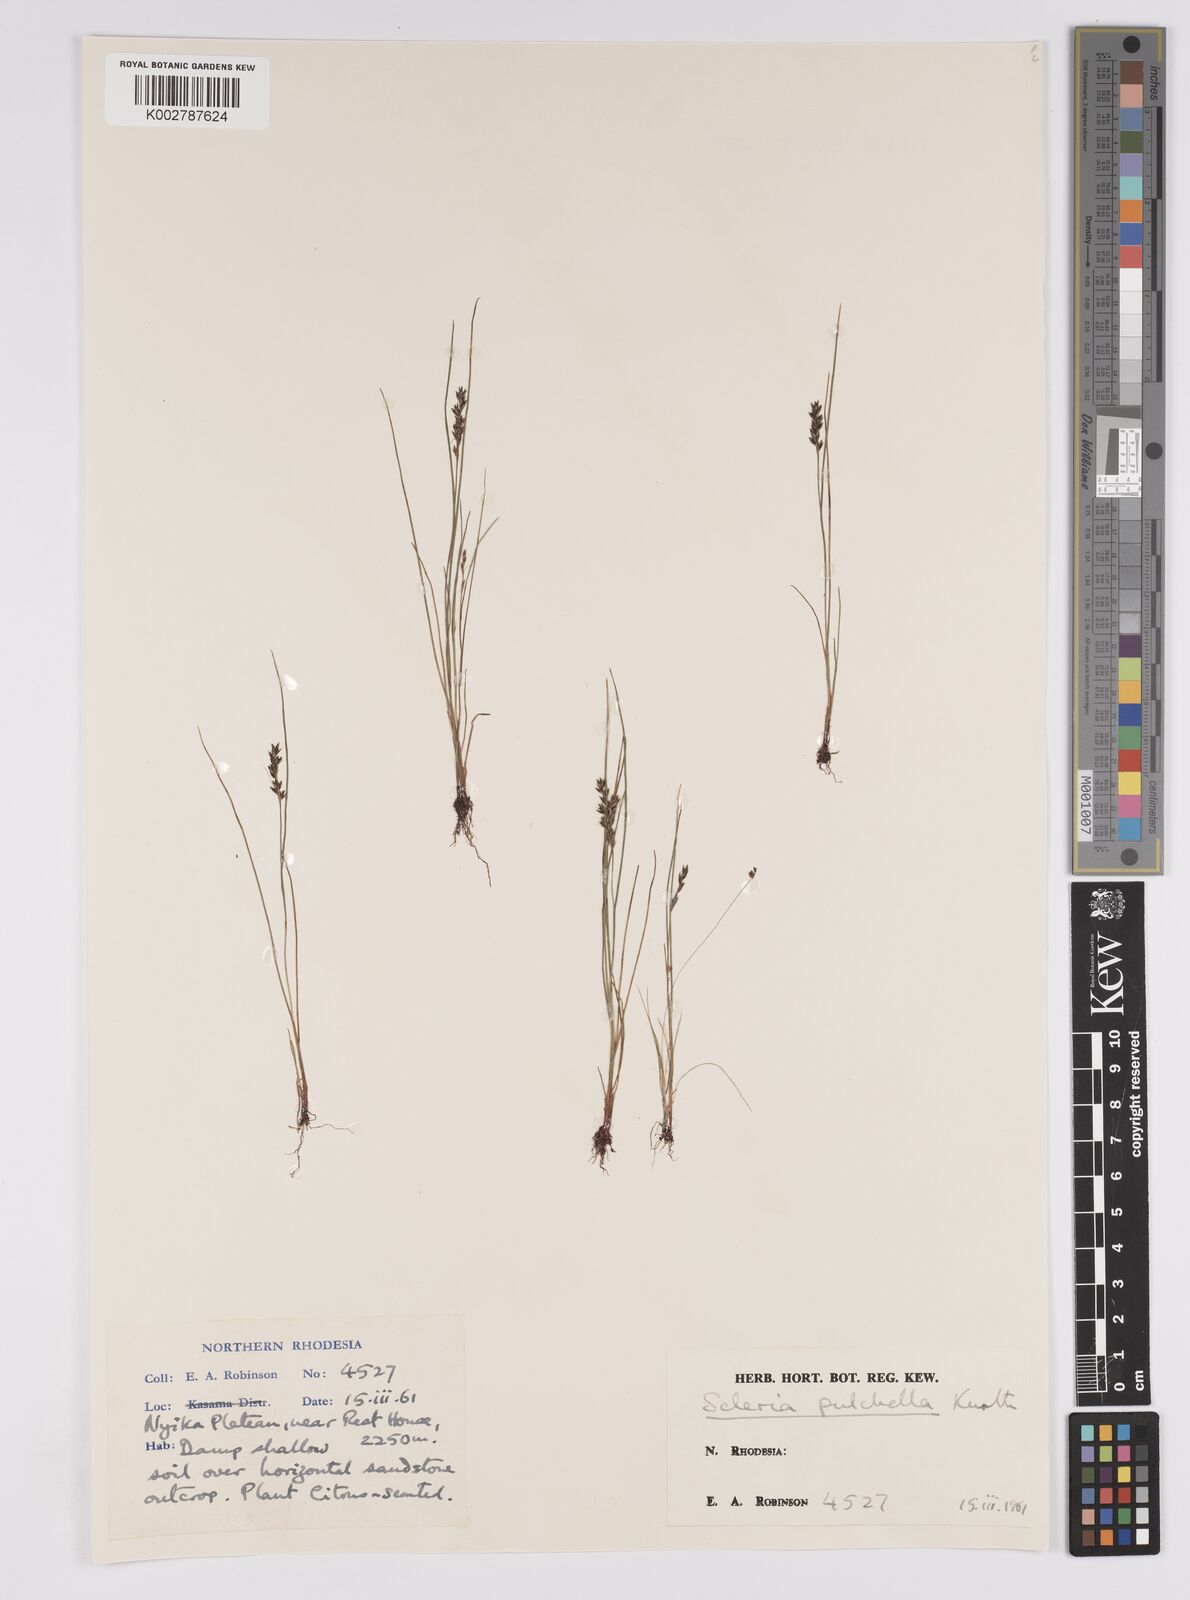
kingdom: Plantae
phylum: Tracheophyta
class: Liliopsida
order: Poales
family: Cyperaceae
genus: Scleria
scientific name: Scleria pulchella
